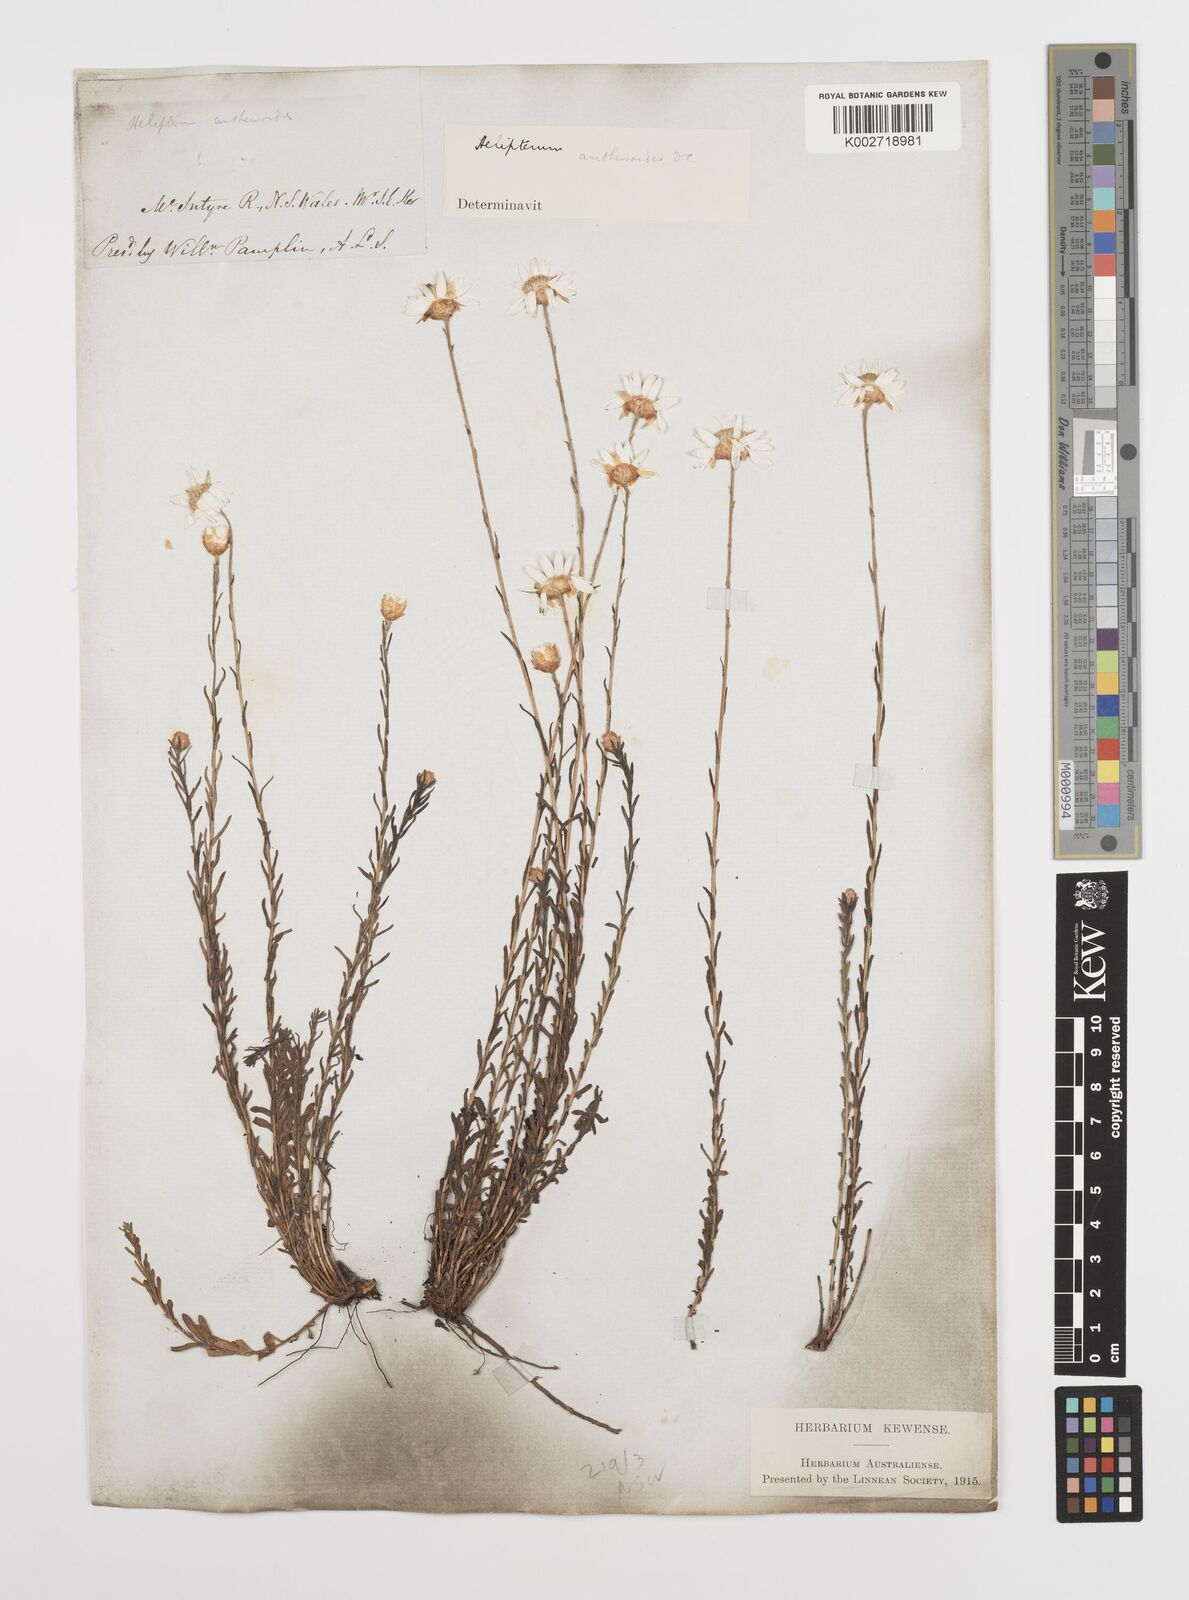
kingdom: Plantae
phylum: Tracheophyta
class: Magnoliopsida
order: Asterales
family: Asteraceae
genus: Rhodanthe
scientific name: Rhodanthe anthemoides
